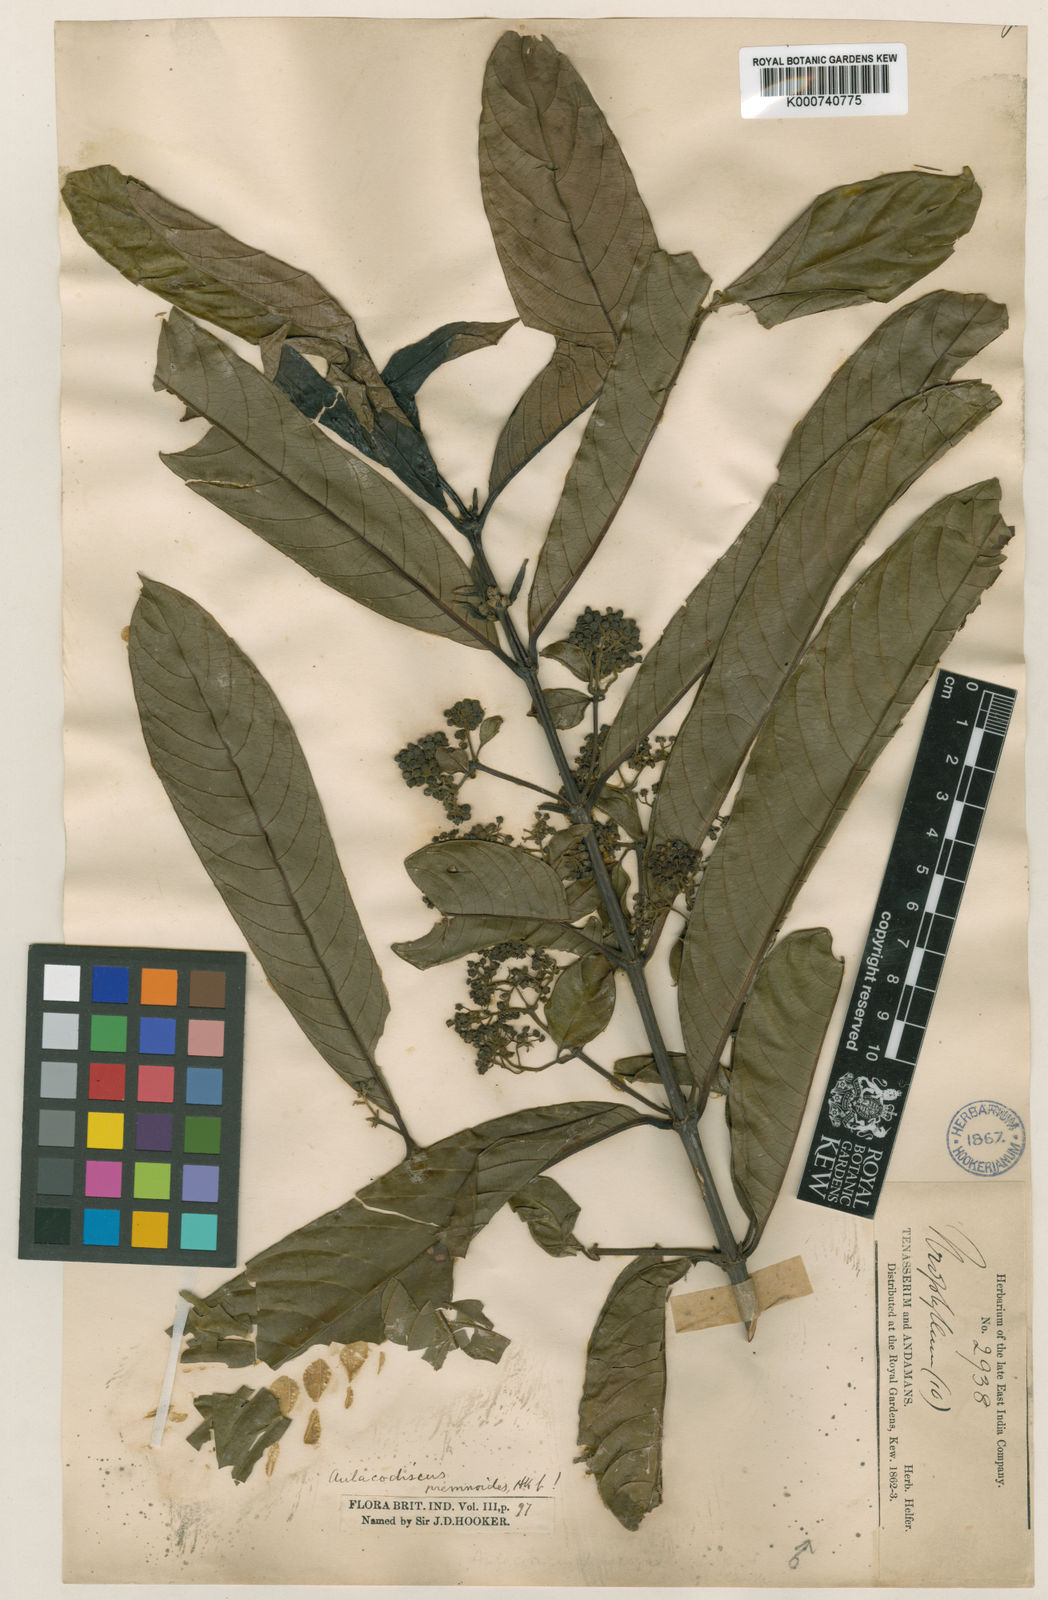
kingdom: Plantae
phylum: Tracheophyta
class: Magnoliopsida
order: Gentianales
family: Rubiaceae
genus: Urophyllum
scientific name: Urophyllum enneandrum
